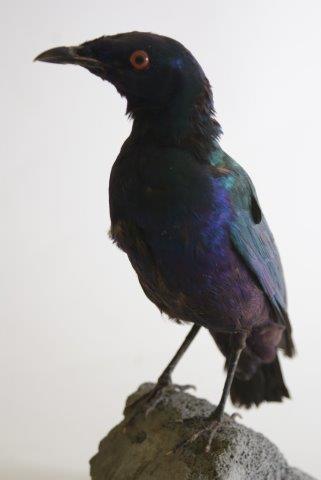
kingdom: Animalia
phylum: Chordata
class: Aves
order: Passeriformes
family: Sturnidae
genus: Lamprotornis
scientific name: Lamprotornis purpureus
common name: Purple starling
